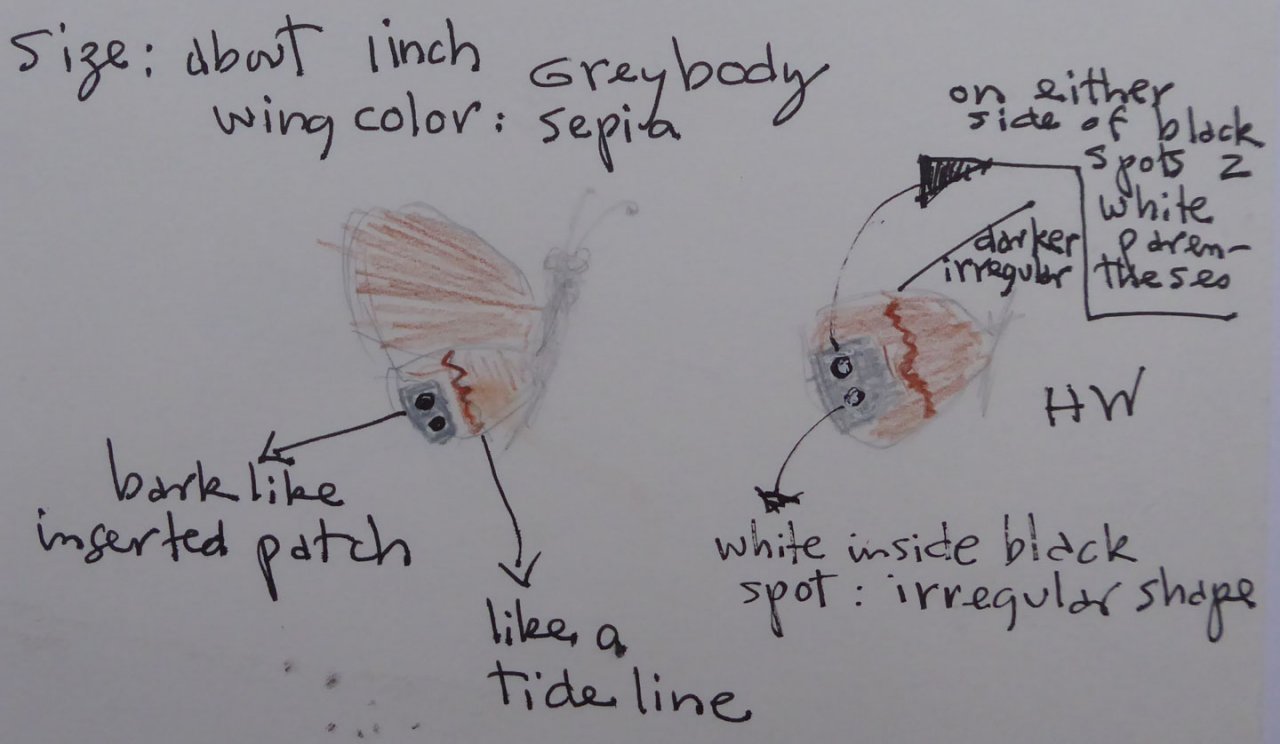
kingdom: Animalia
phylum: Arthropoda
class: Insecta
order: Lepidoptera
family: Nymphalidae
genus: Euptychia
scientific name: Euptychia Cyllopsis pertepida
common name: Canyonland Satyr
